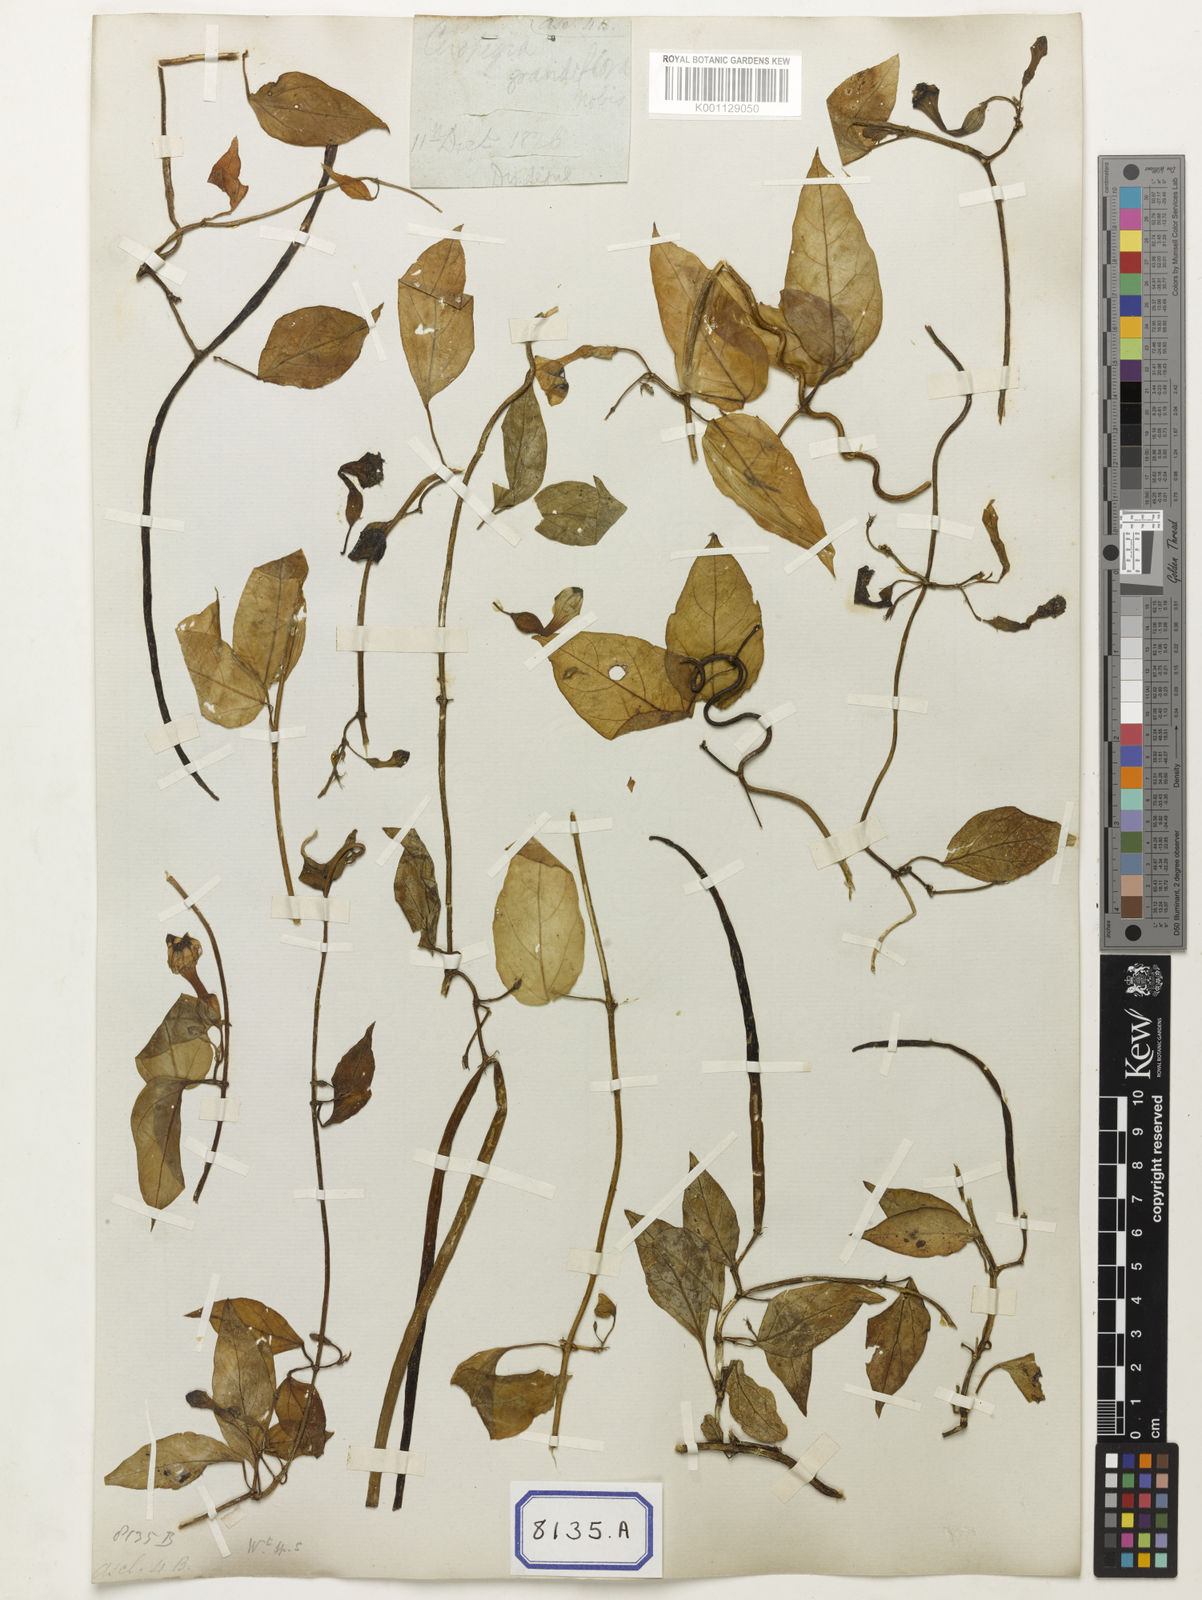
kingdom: Plantae
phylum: Tracheophyta
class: Magnoliopsida
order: Gentianales
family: Apocynaceae
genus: Ceropegia
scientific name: Ceropegia elegans
